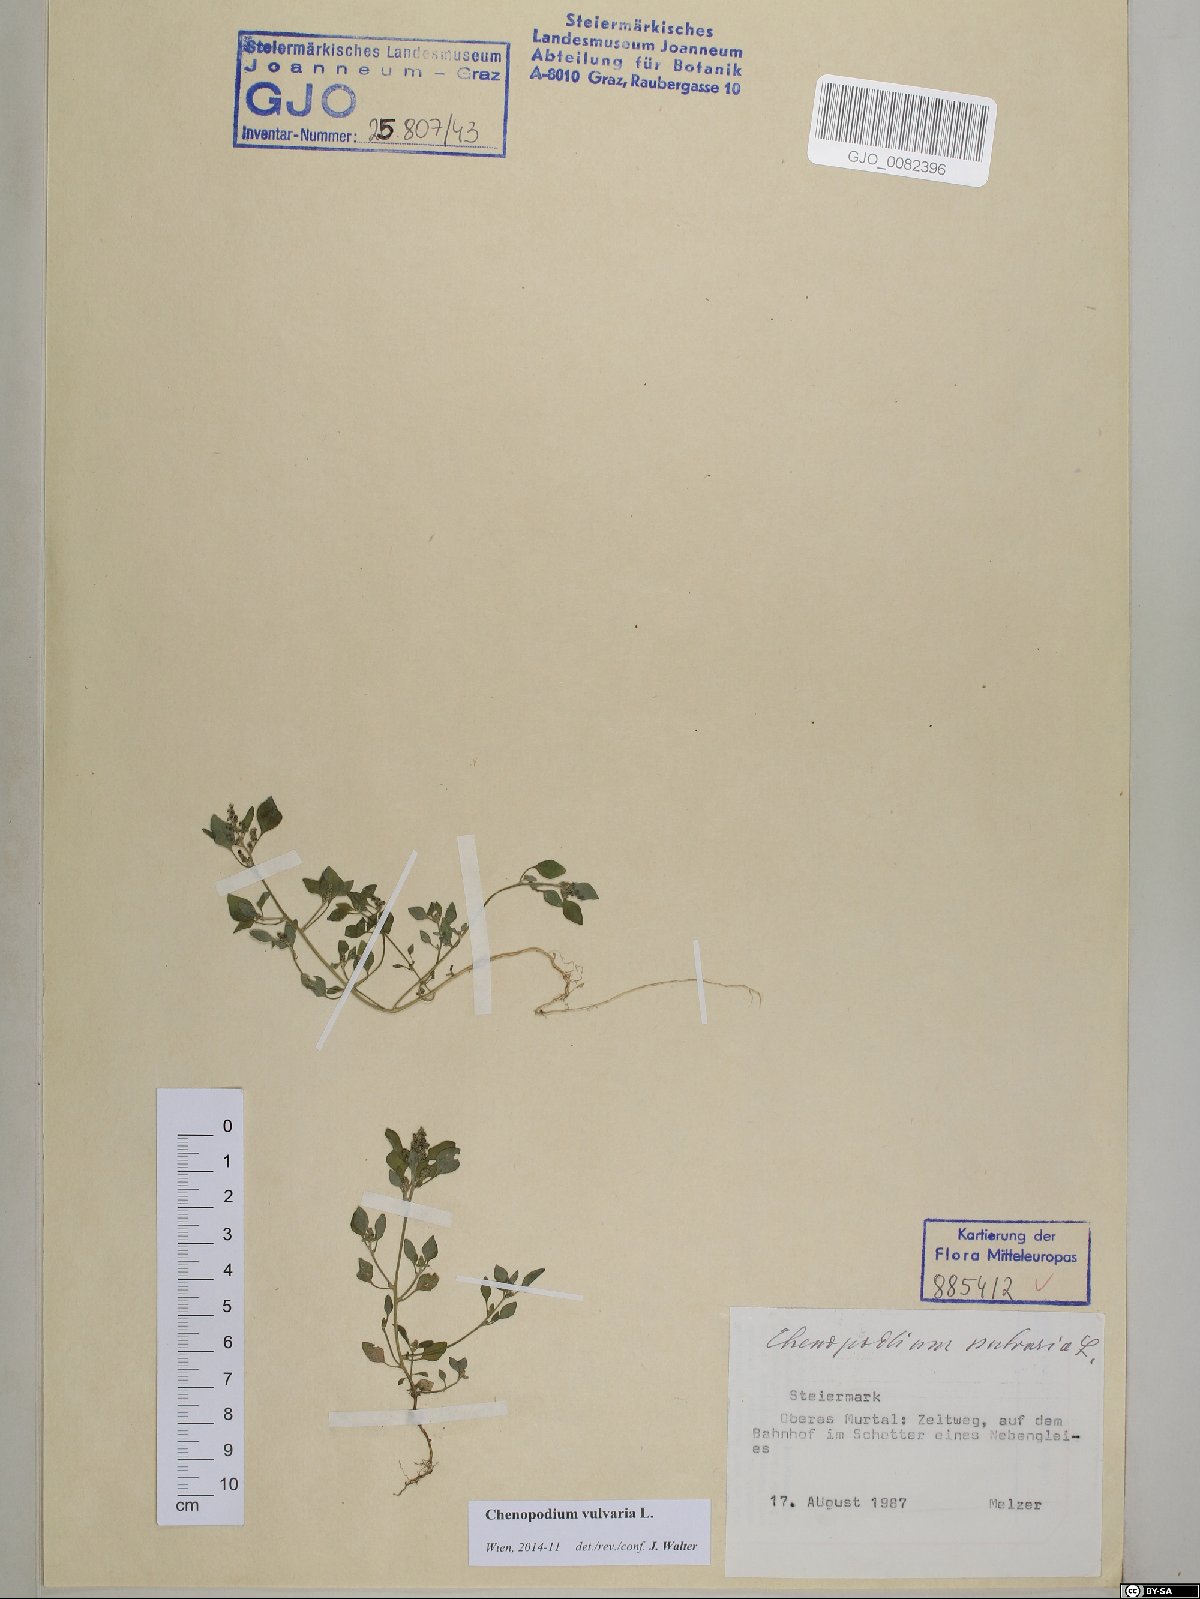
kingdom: Plantae
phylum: Tracheophyta
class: Magnoliopsida
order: Caryophyllales
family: Amaranthaceae
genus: Chenopodium
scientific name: Chenopodium vulvaria
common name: Stinking goosefoot
